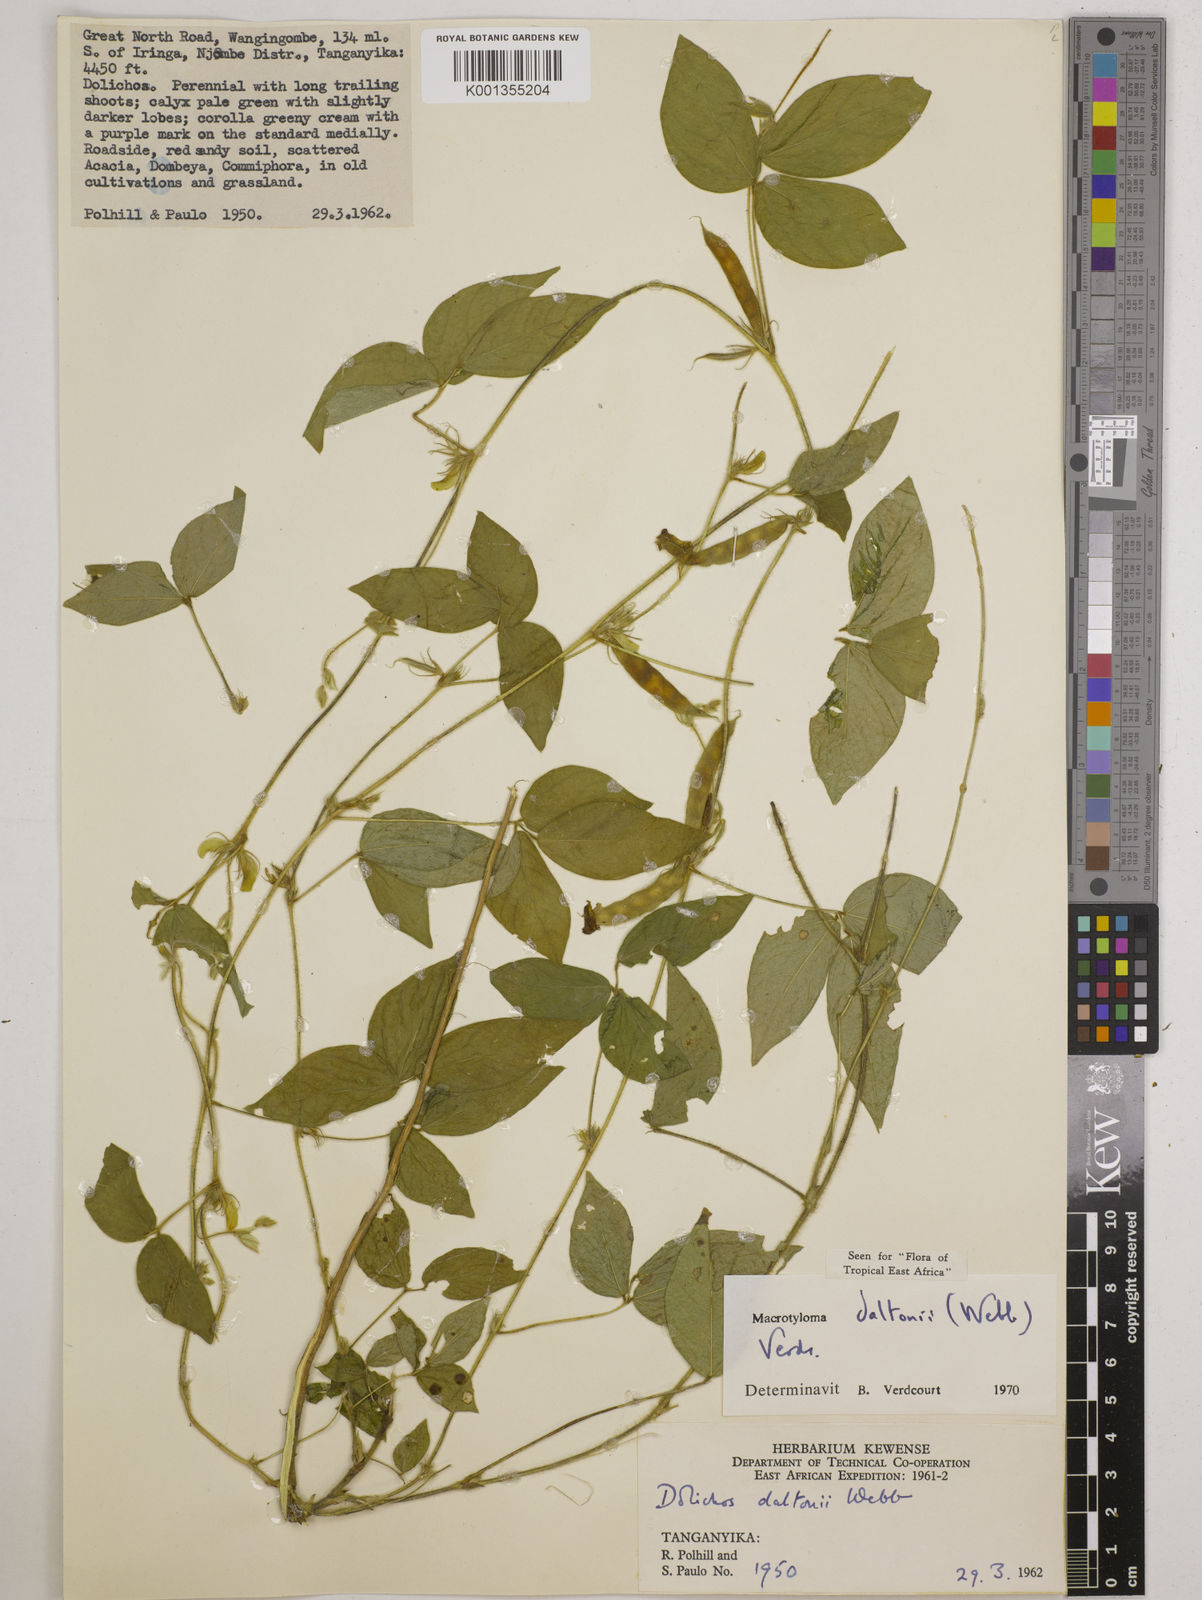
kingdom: Plantae
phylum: Tracheophyta
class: Magnoliopsida
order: Fabales
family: Fabaceae
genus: Macrotyloma
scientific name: Macrotyloma daltonii
